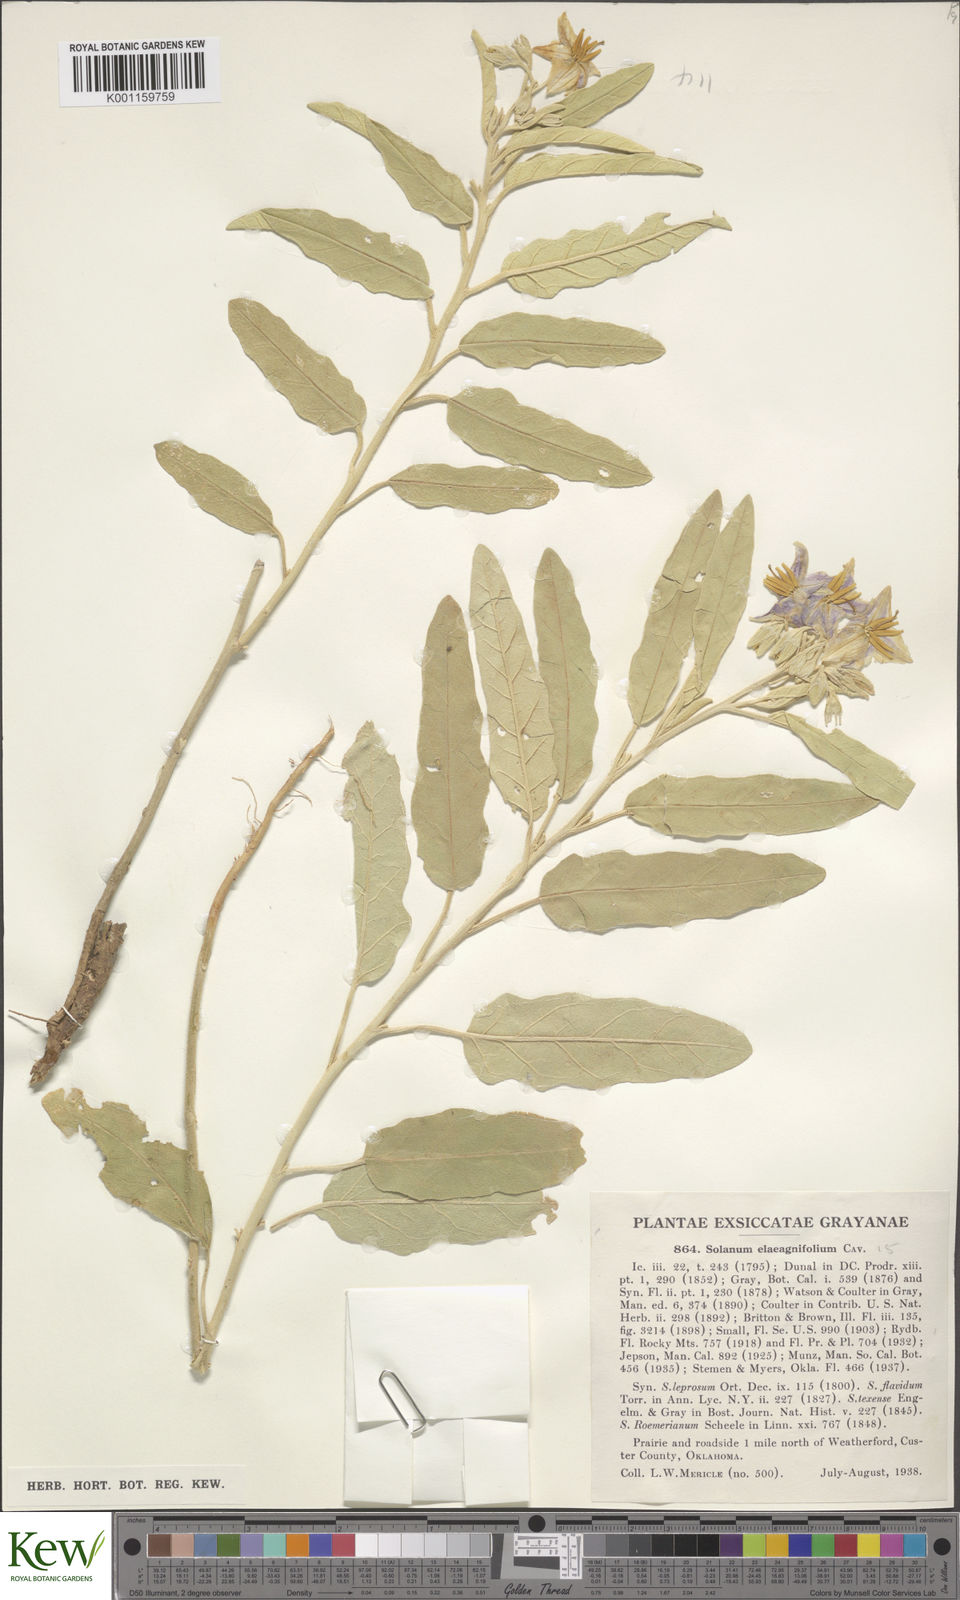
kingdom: Plantae
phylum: Tracheophyta
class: Magnoliopsida
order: Solanales
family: Solanaceae
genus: Solanum
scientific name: Solanum
